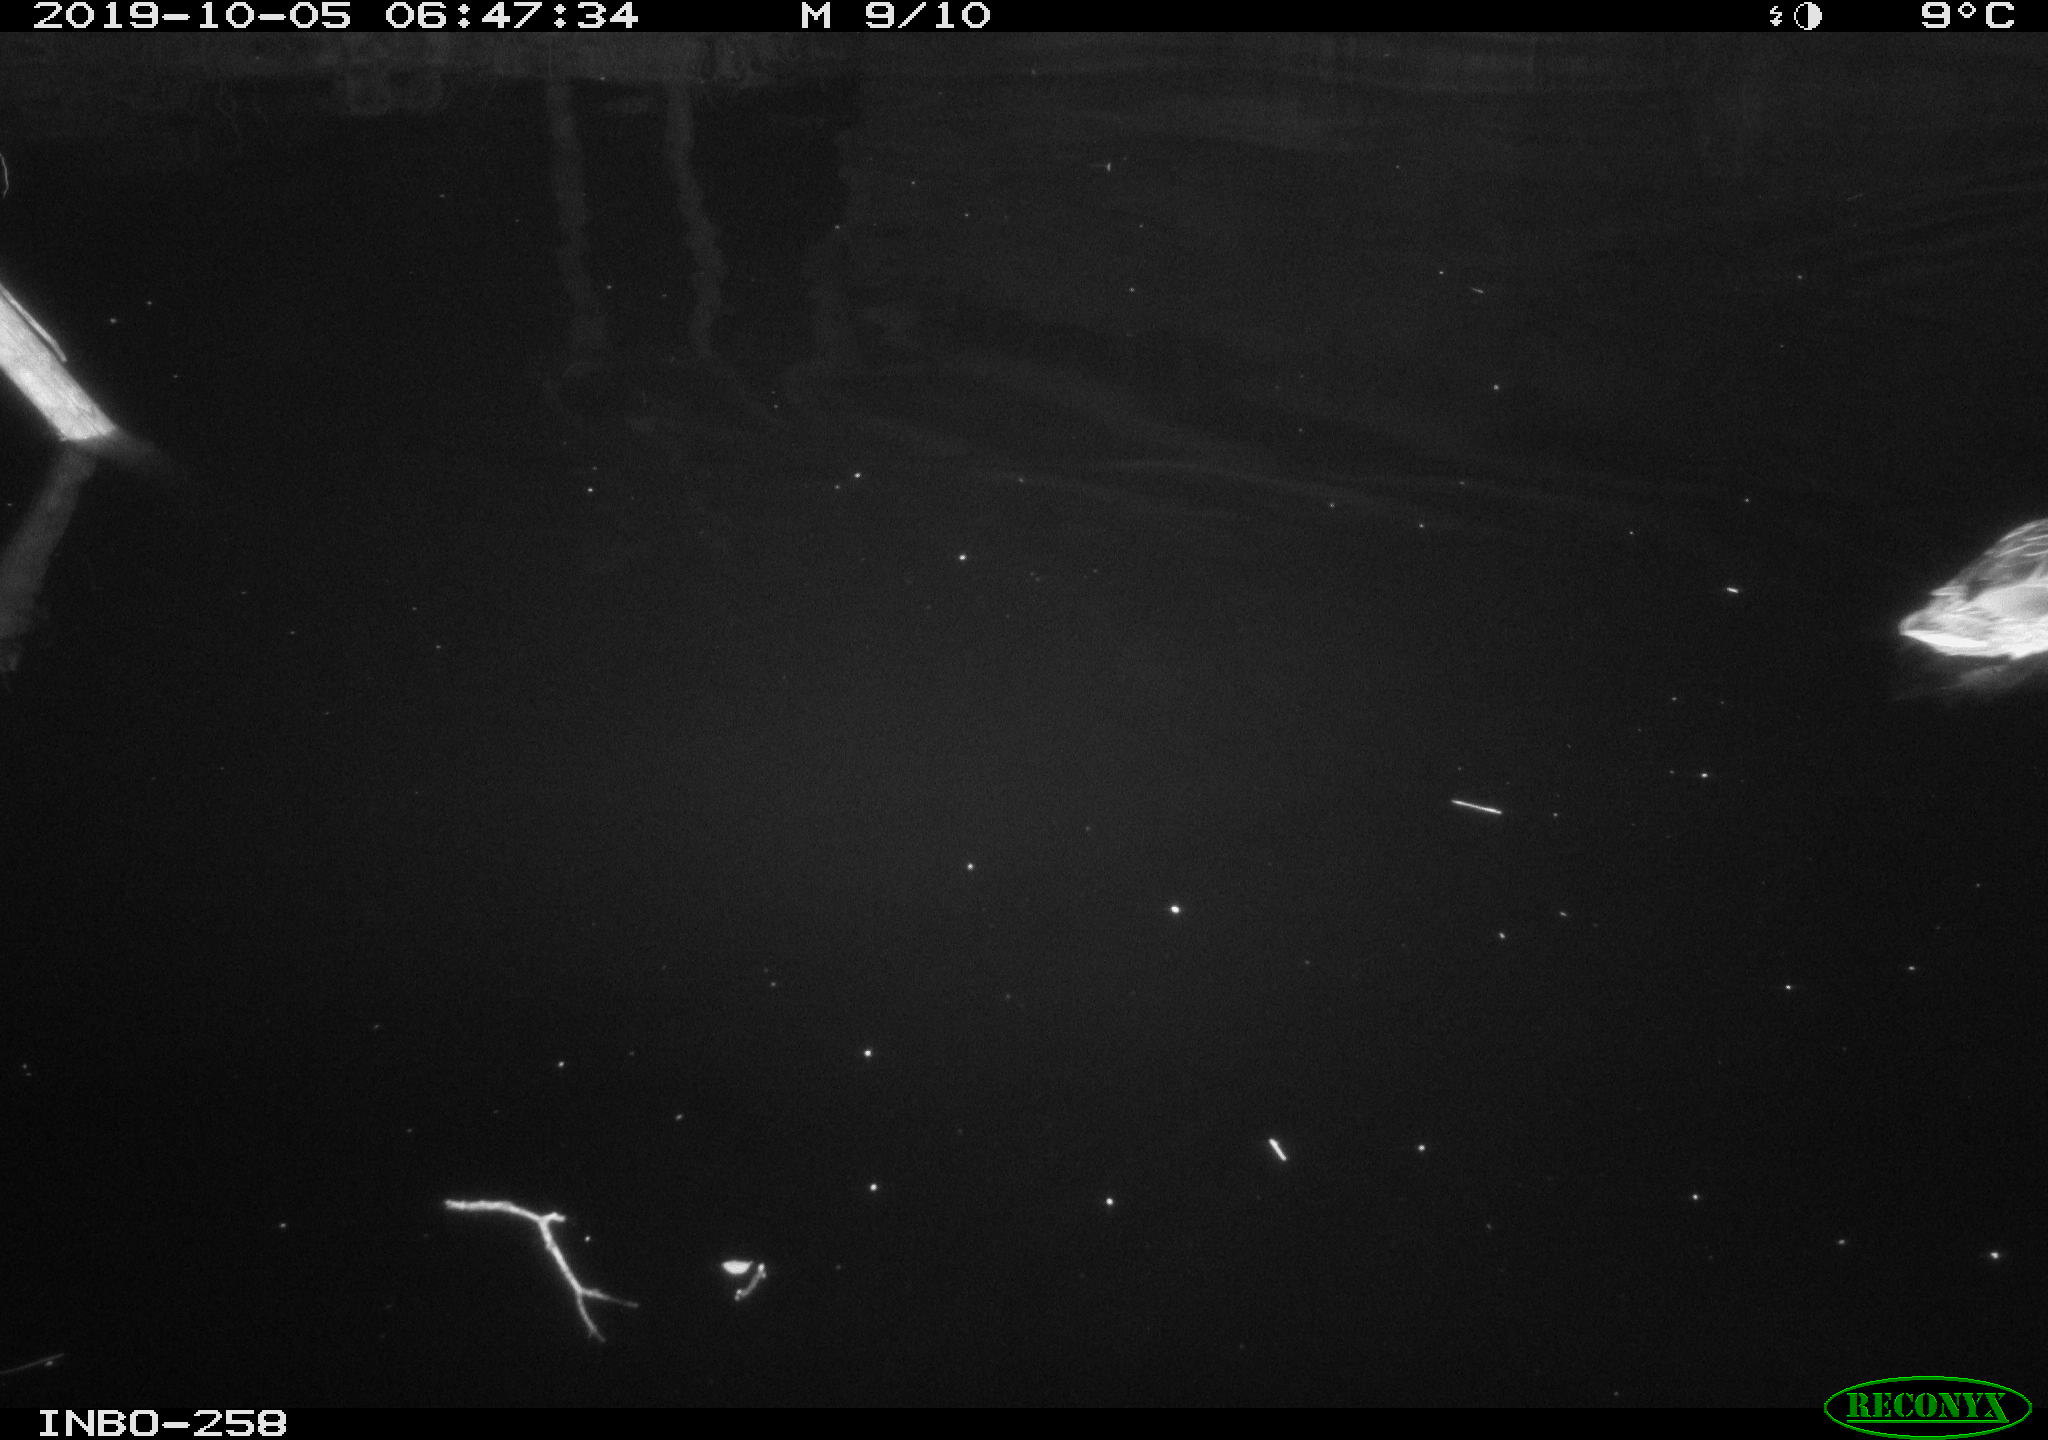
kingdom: Animalia
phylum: Chordata
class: Aves
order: Anseriformes
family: Anatidae
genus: Anas
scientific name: Anas platyrhynchos
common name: Mallard
